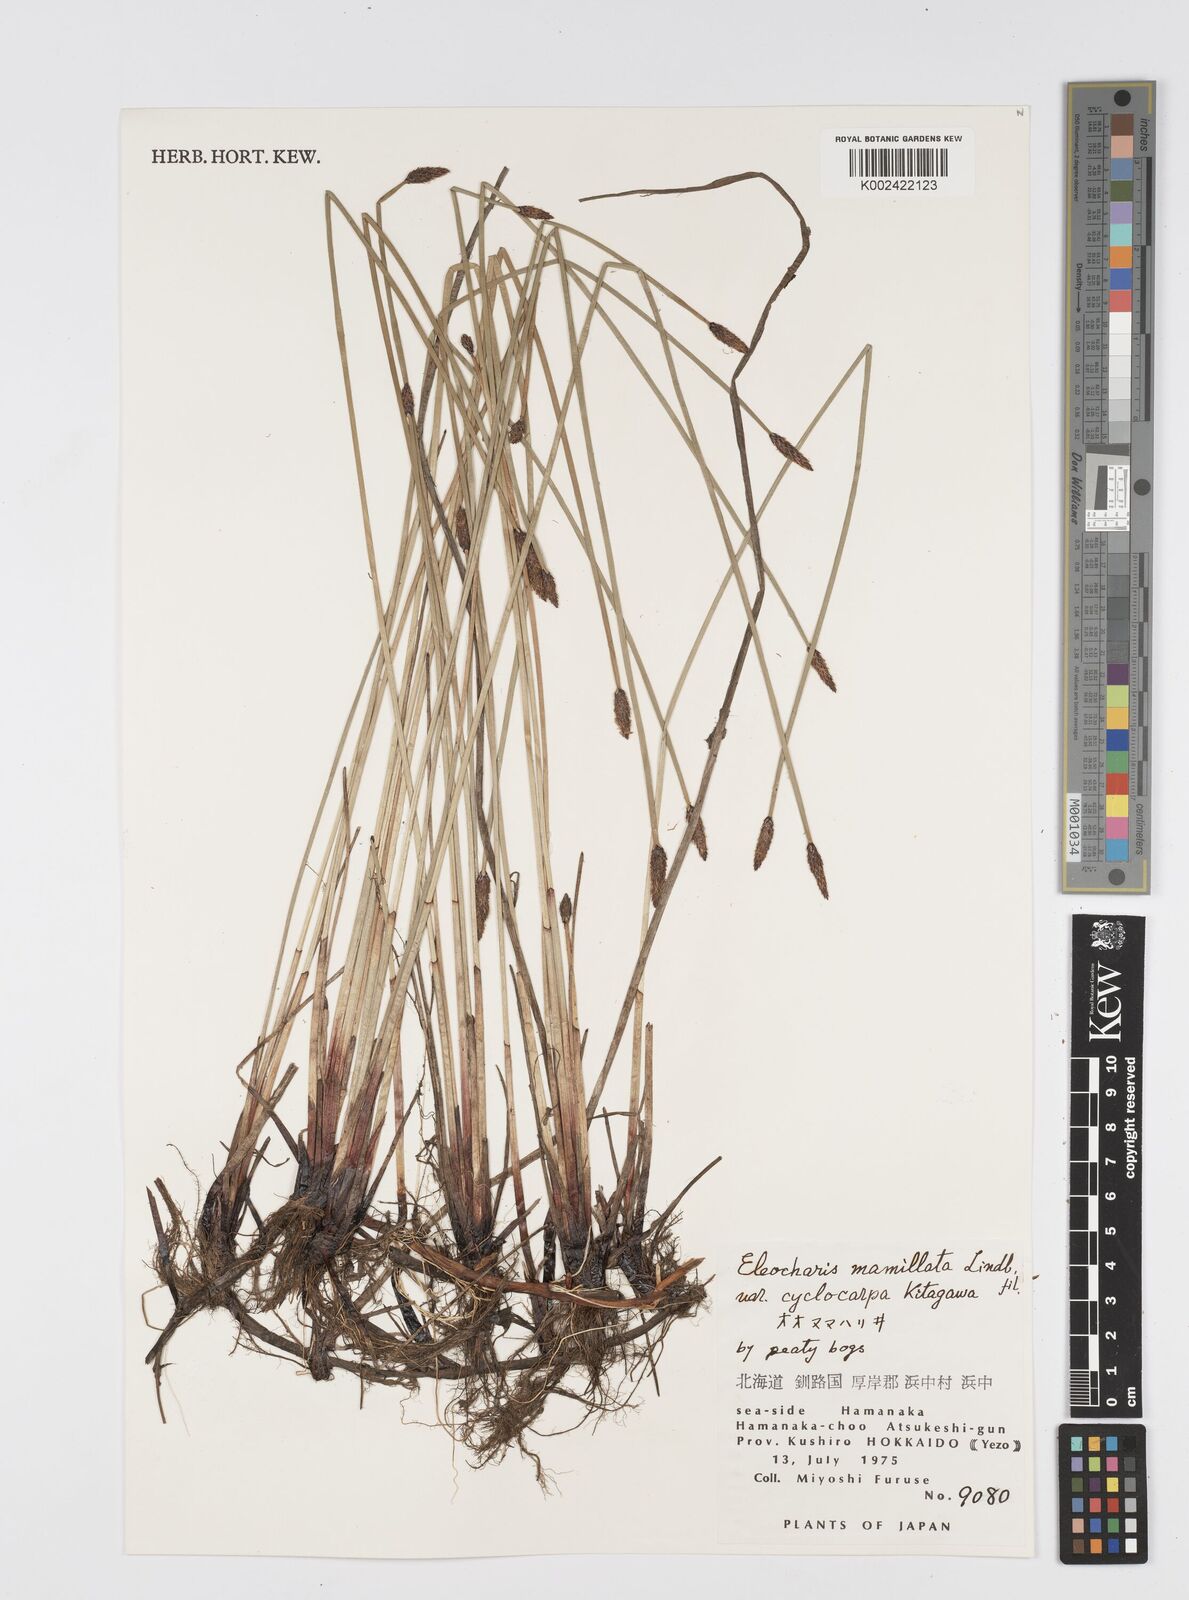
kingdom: Plantae
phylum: Tracheophyta
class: Liliopsida
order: Poales
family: Cyperaceae
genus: Eleocharis
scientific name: Eleocharis mamillata
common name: Northern spike-rush
